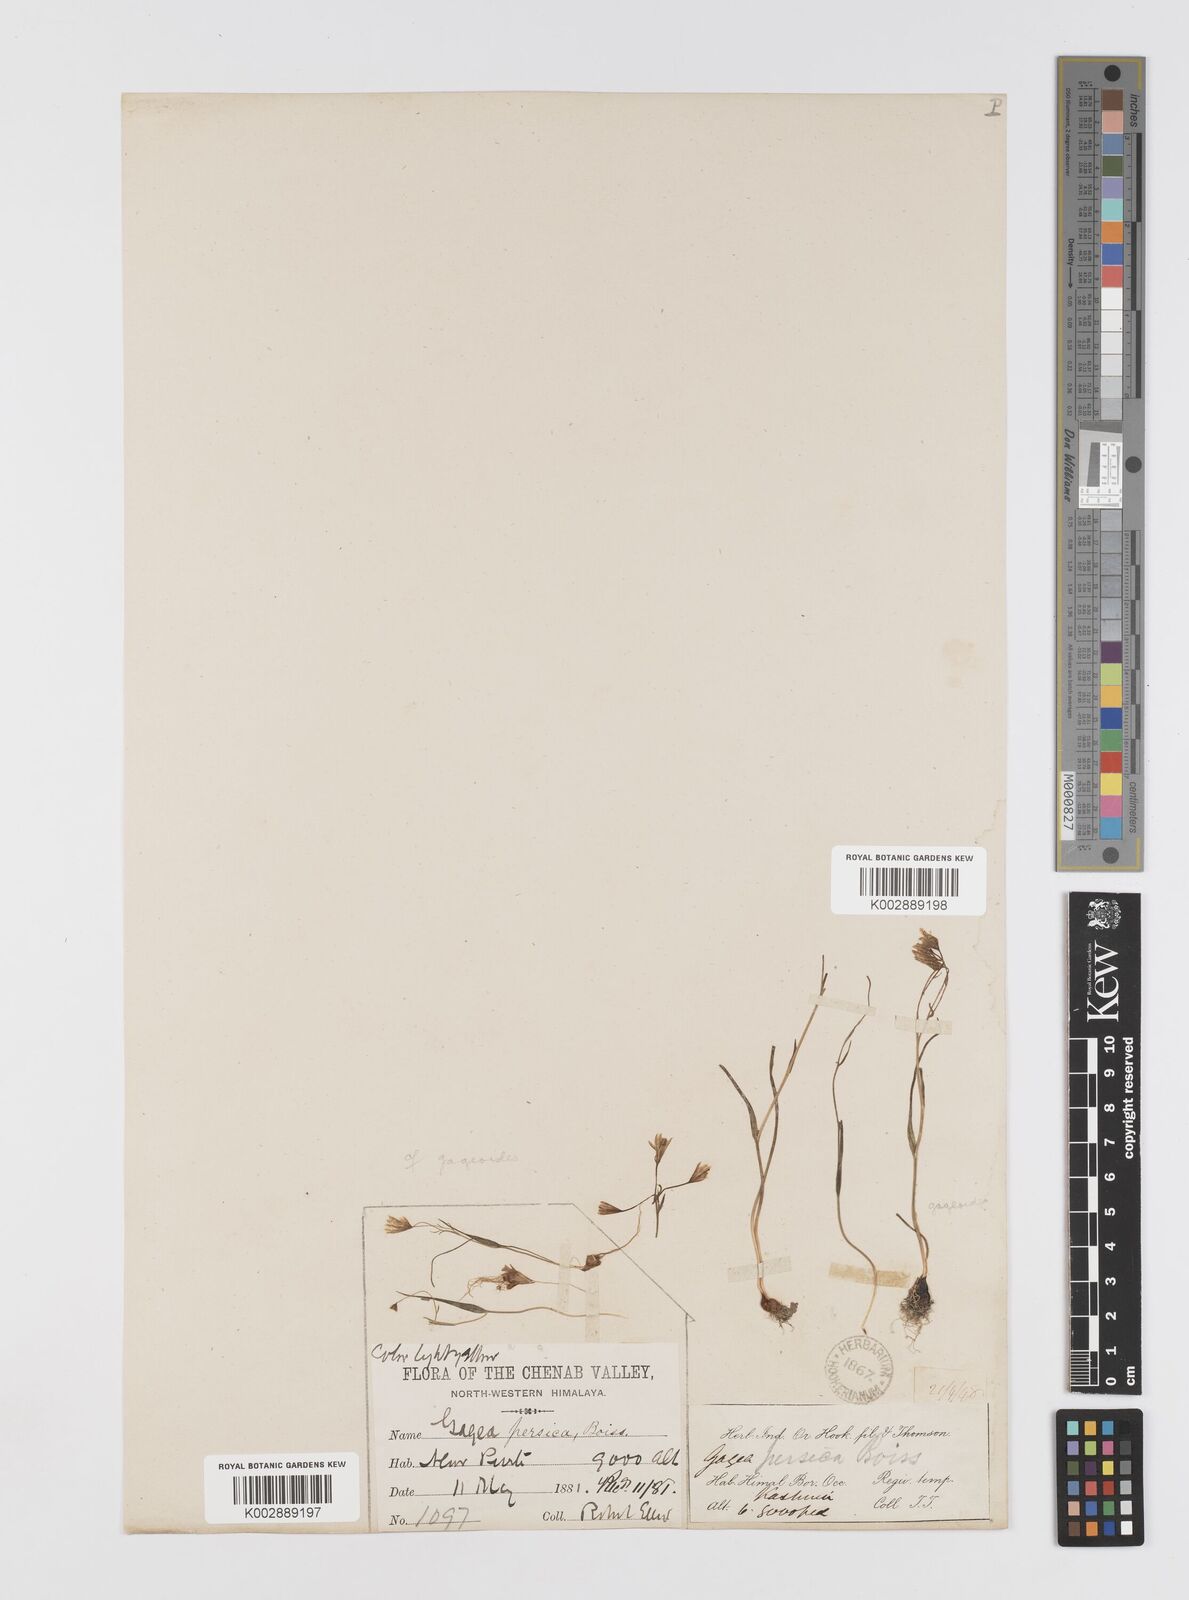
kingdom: Plantae
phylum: Tracheophyta
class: Liliopsida
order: Liliales
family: Liliaceae
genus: Gagea
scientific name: Gagea dschungarica
